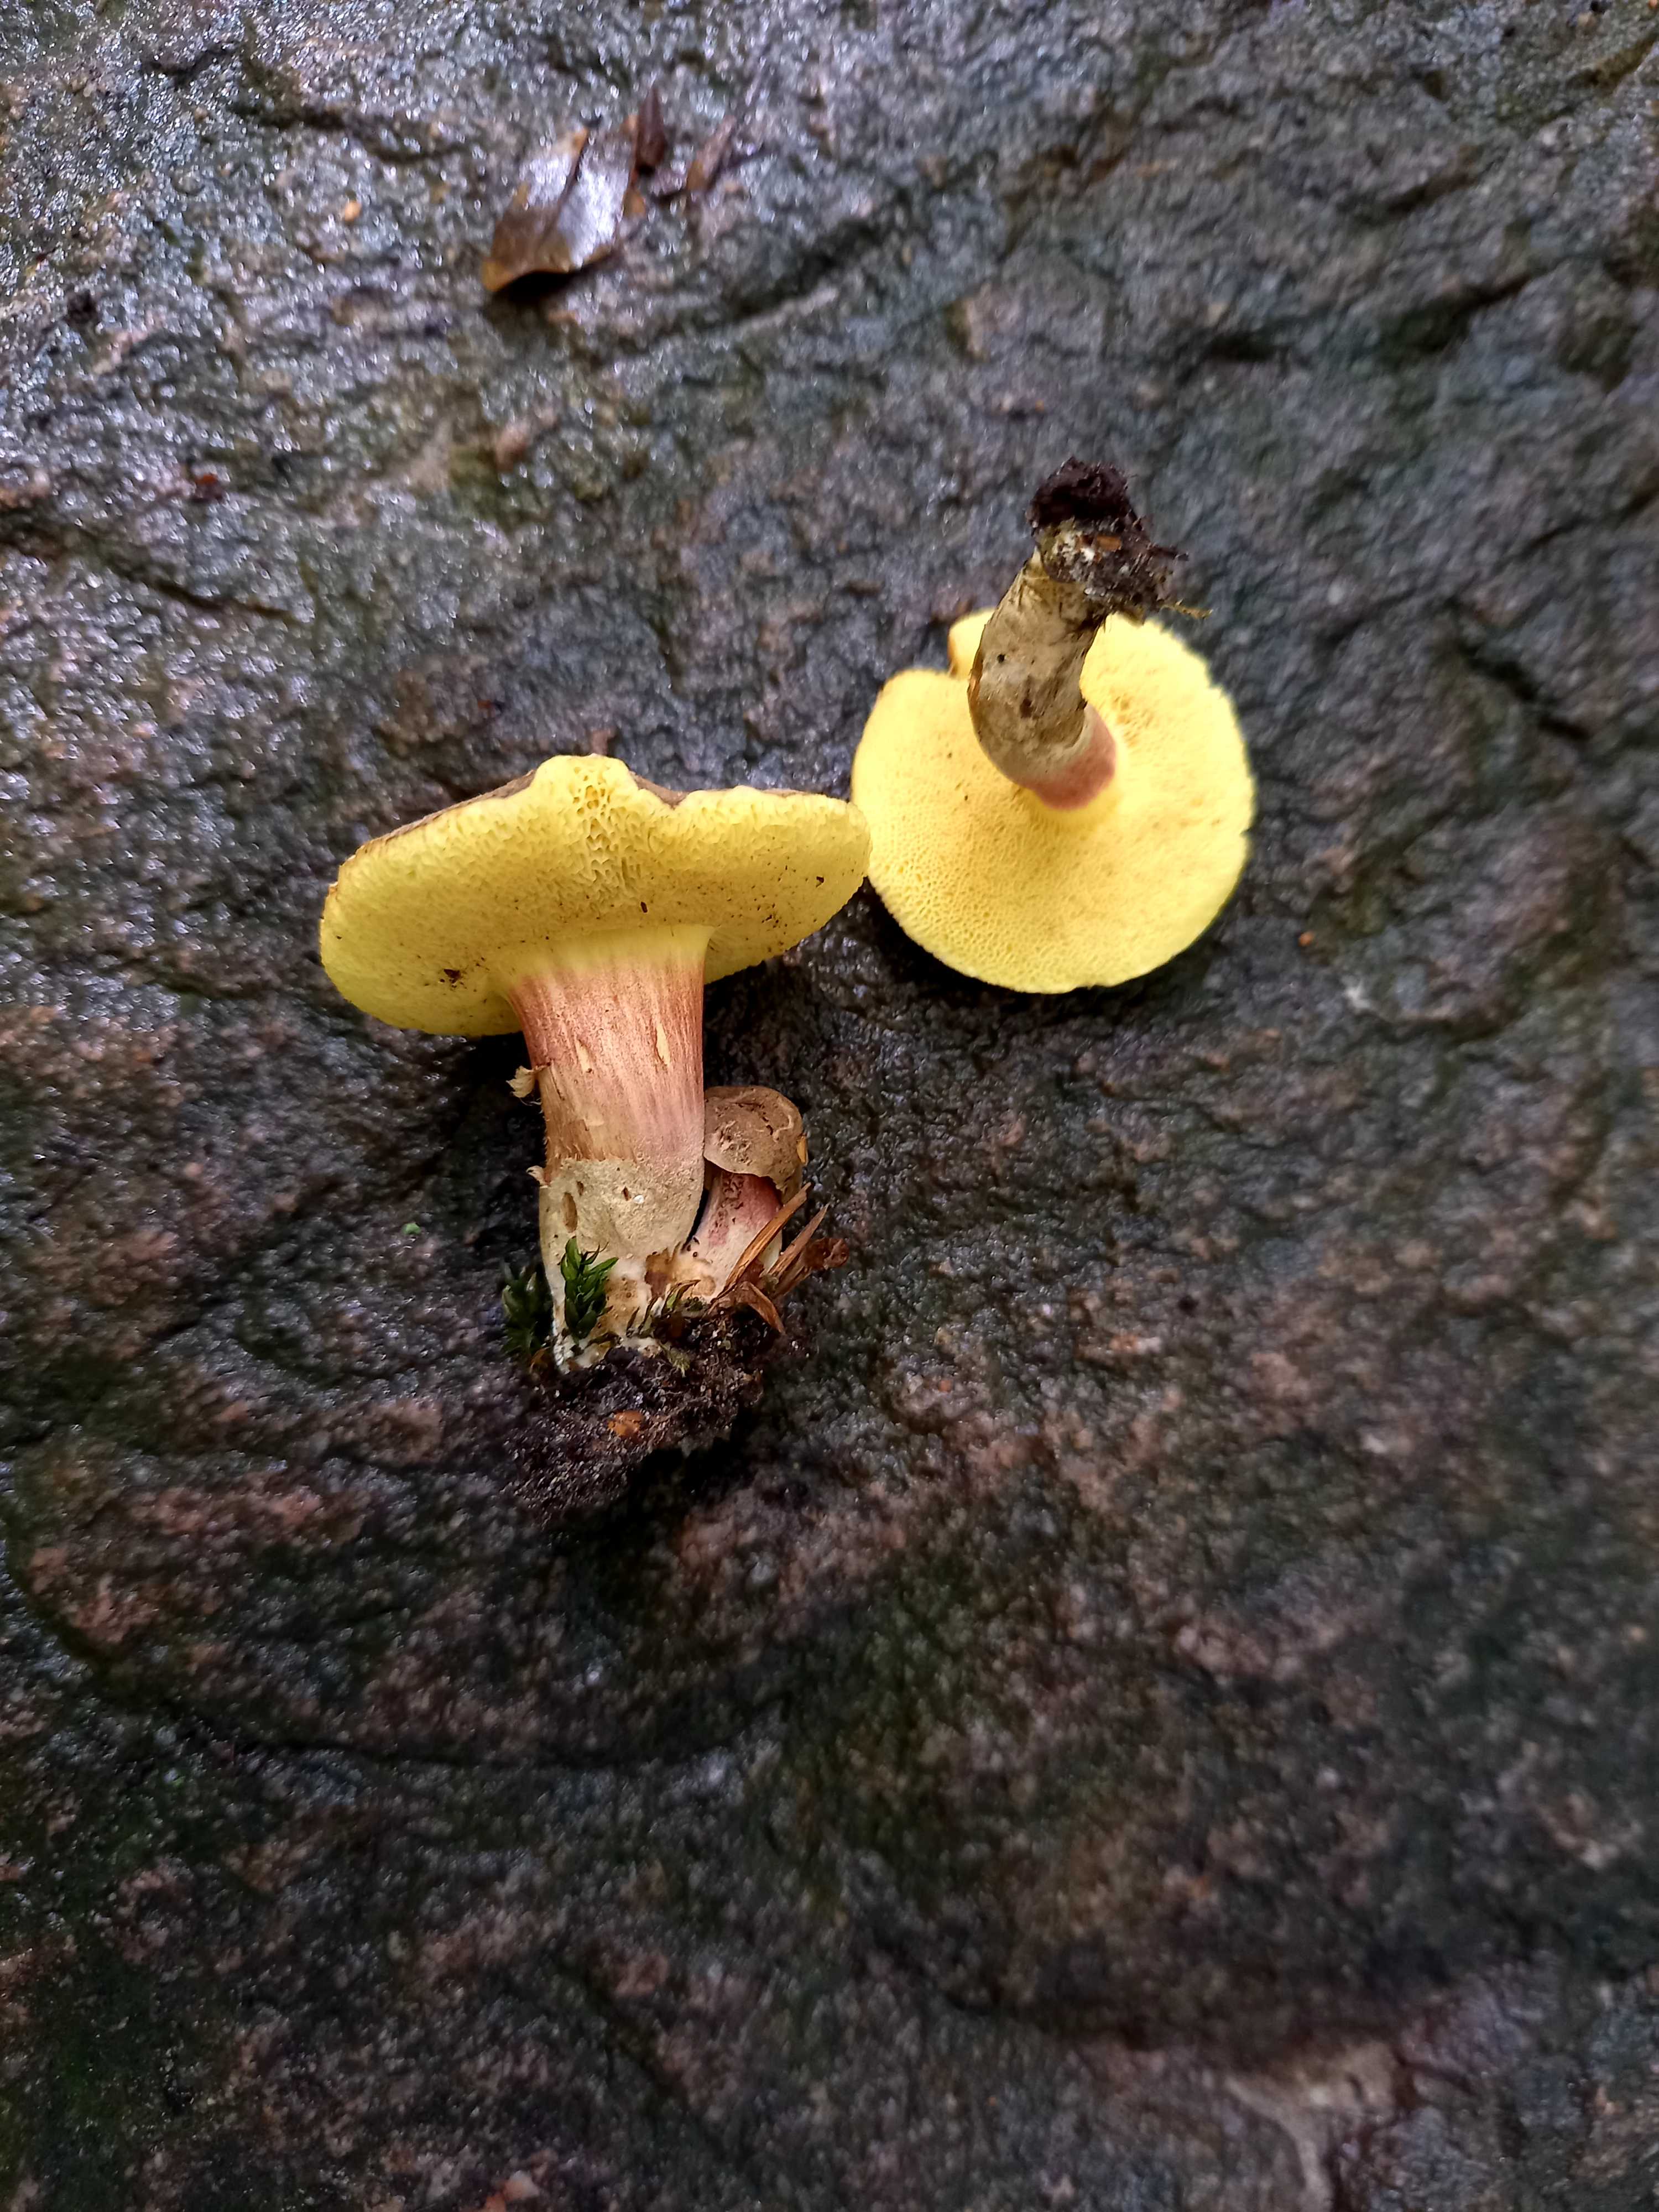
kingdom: Fungi
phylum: Basidiomycota
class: Agaricomycetes
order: Boletales
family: Boletaceae
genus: Xerocomellus
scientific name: Xerocomellus chrysenteron
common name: rødsprukken rørhat
